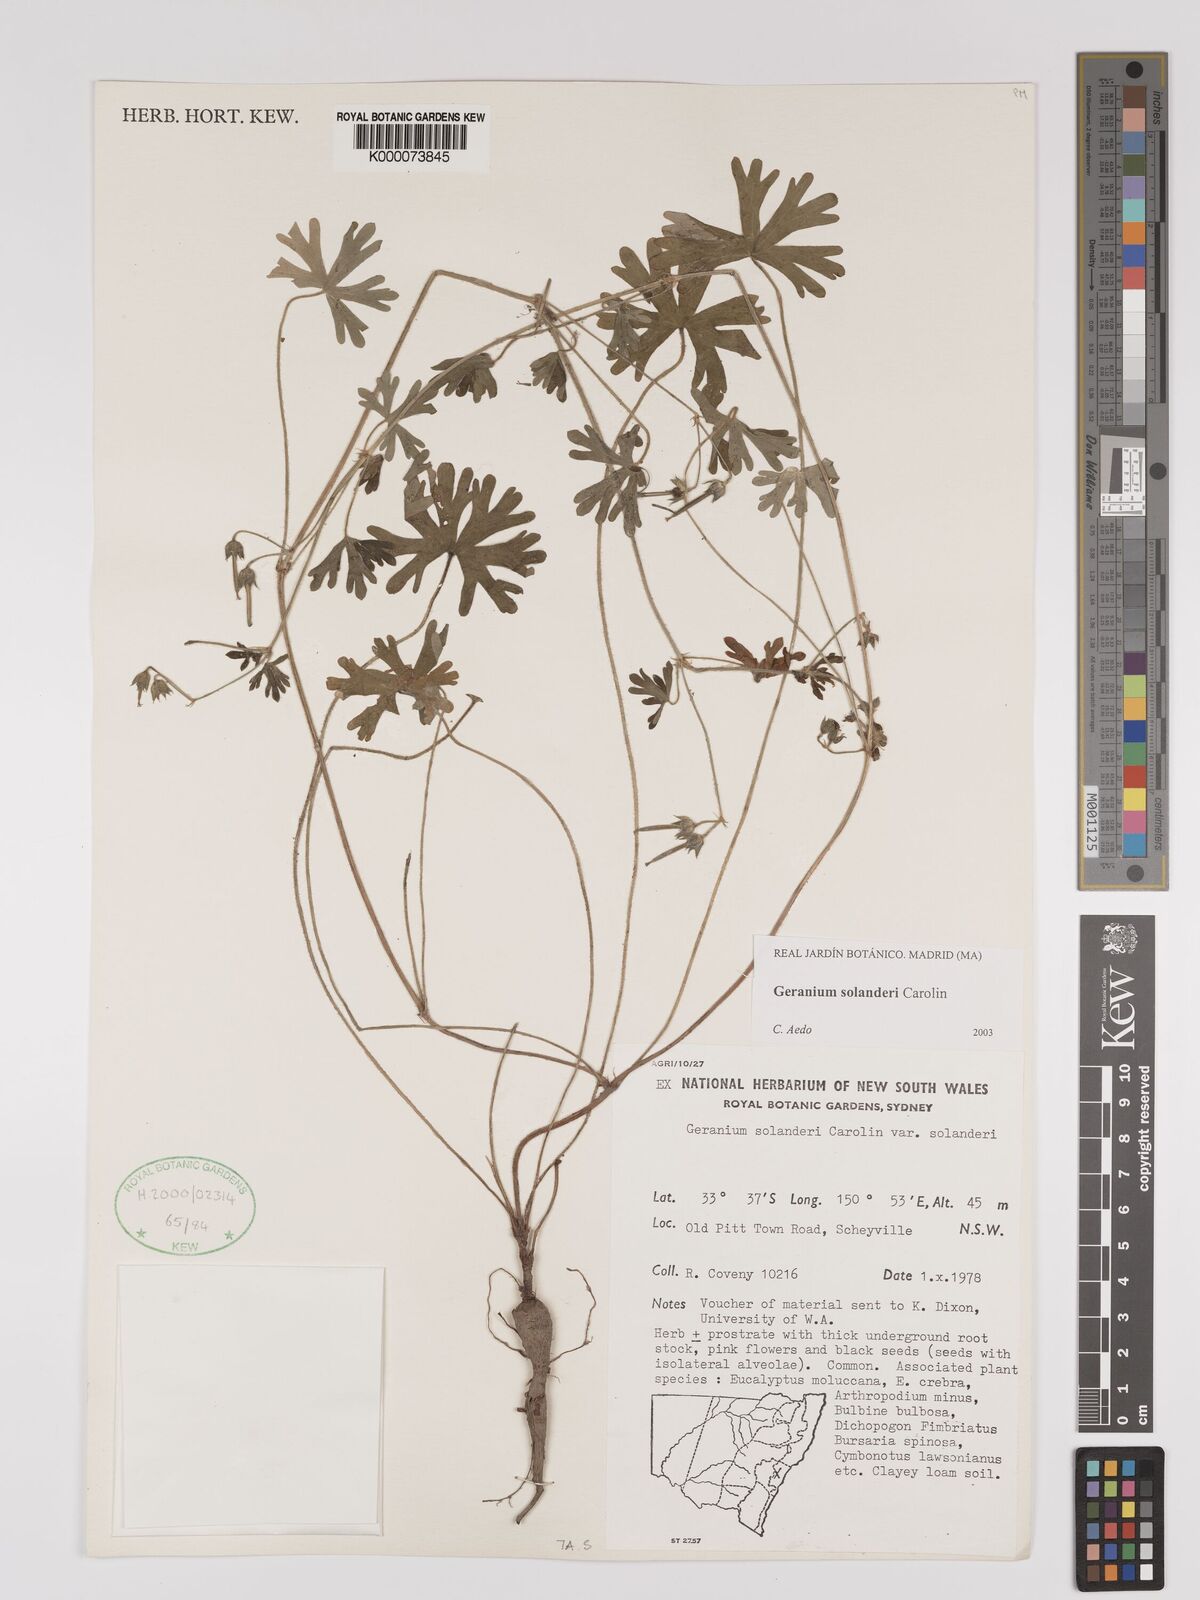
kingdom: Plantae
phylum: Tracheophyta
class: Magnoliopsida
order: Geraniales
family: Geraniaceae
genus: Geranium
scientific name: Geranium solanderi
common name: Solander's geranium
